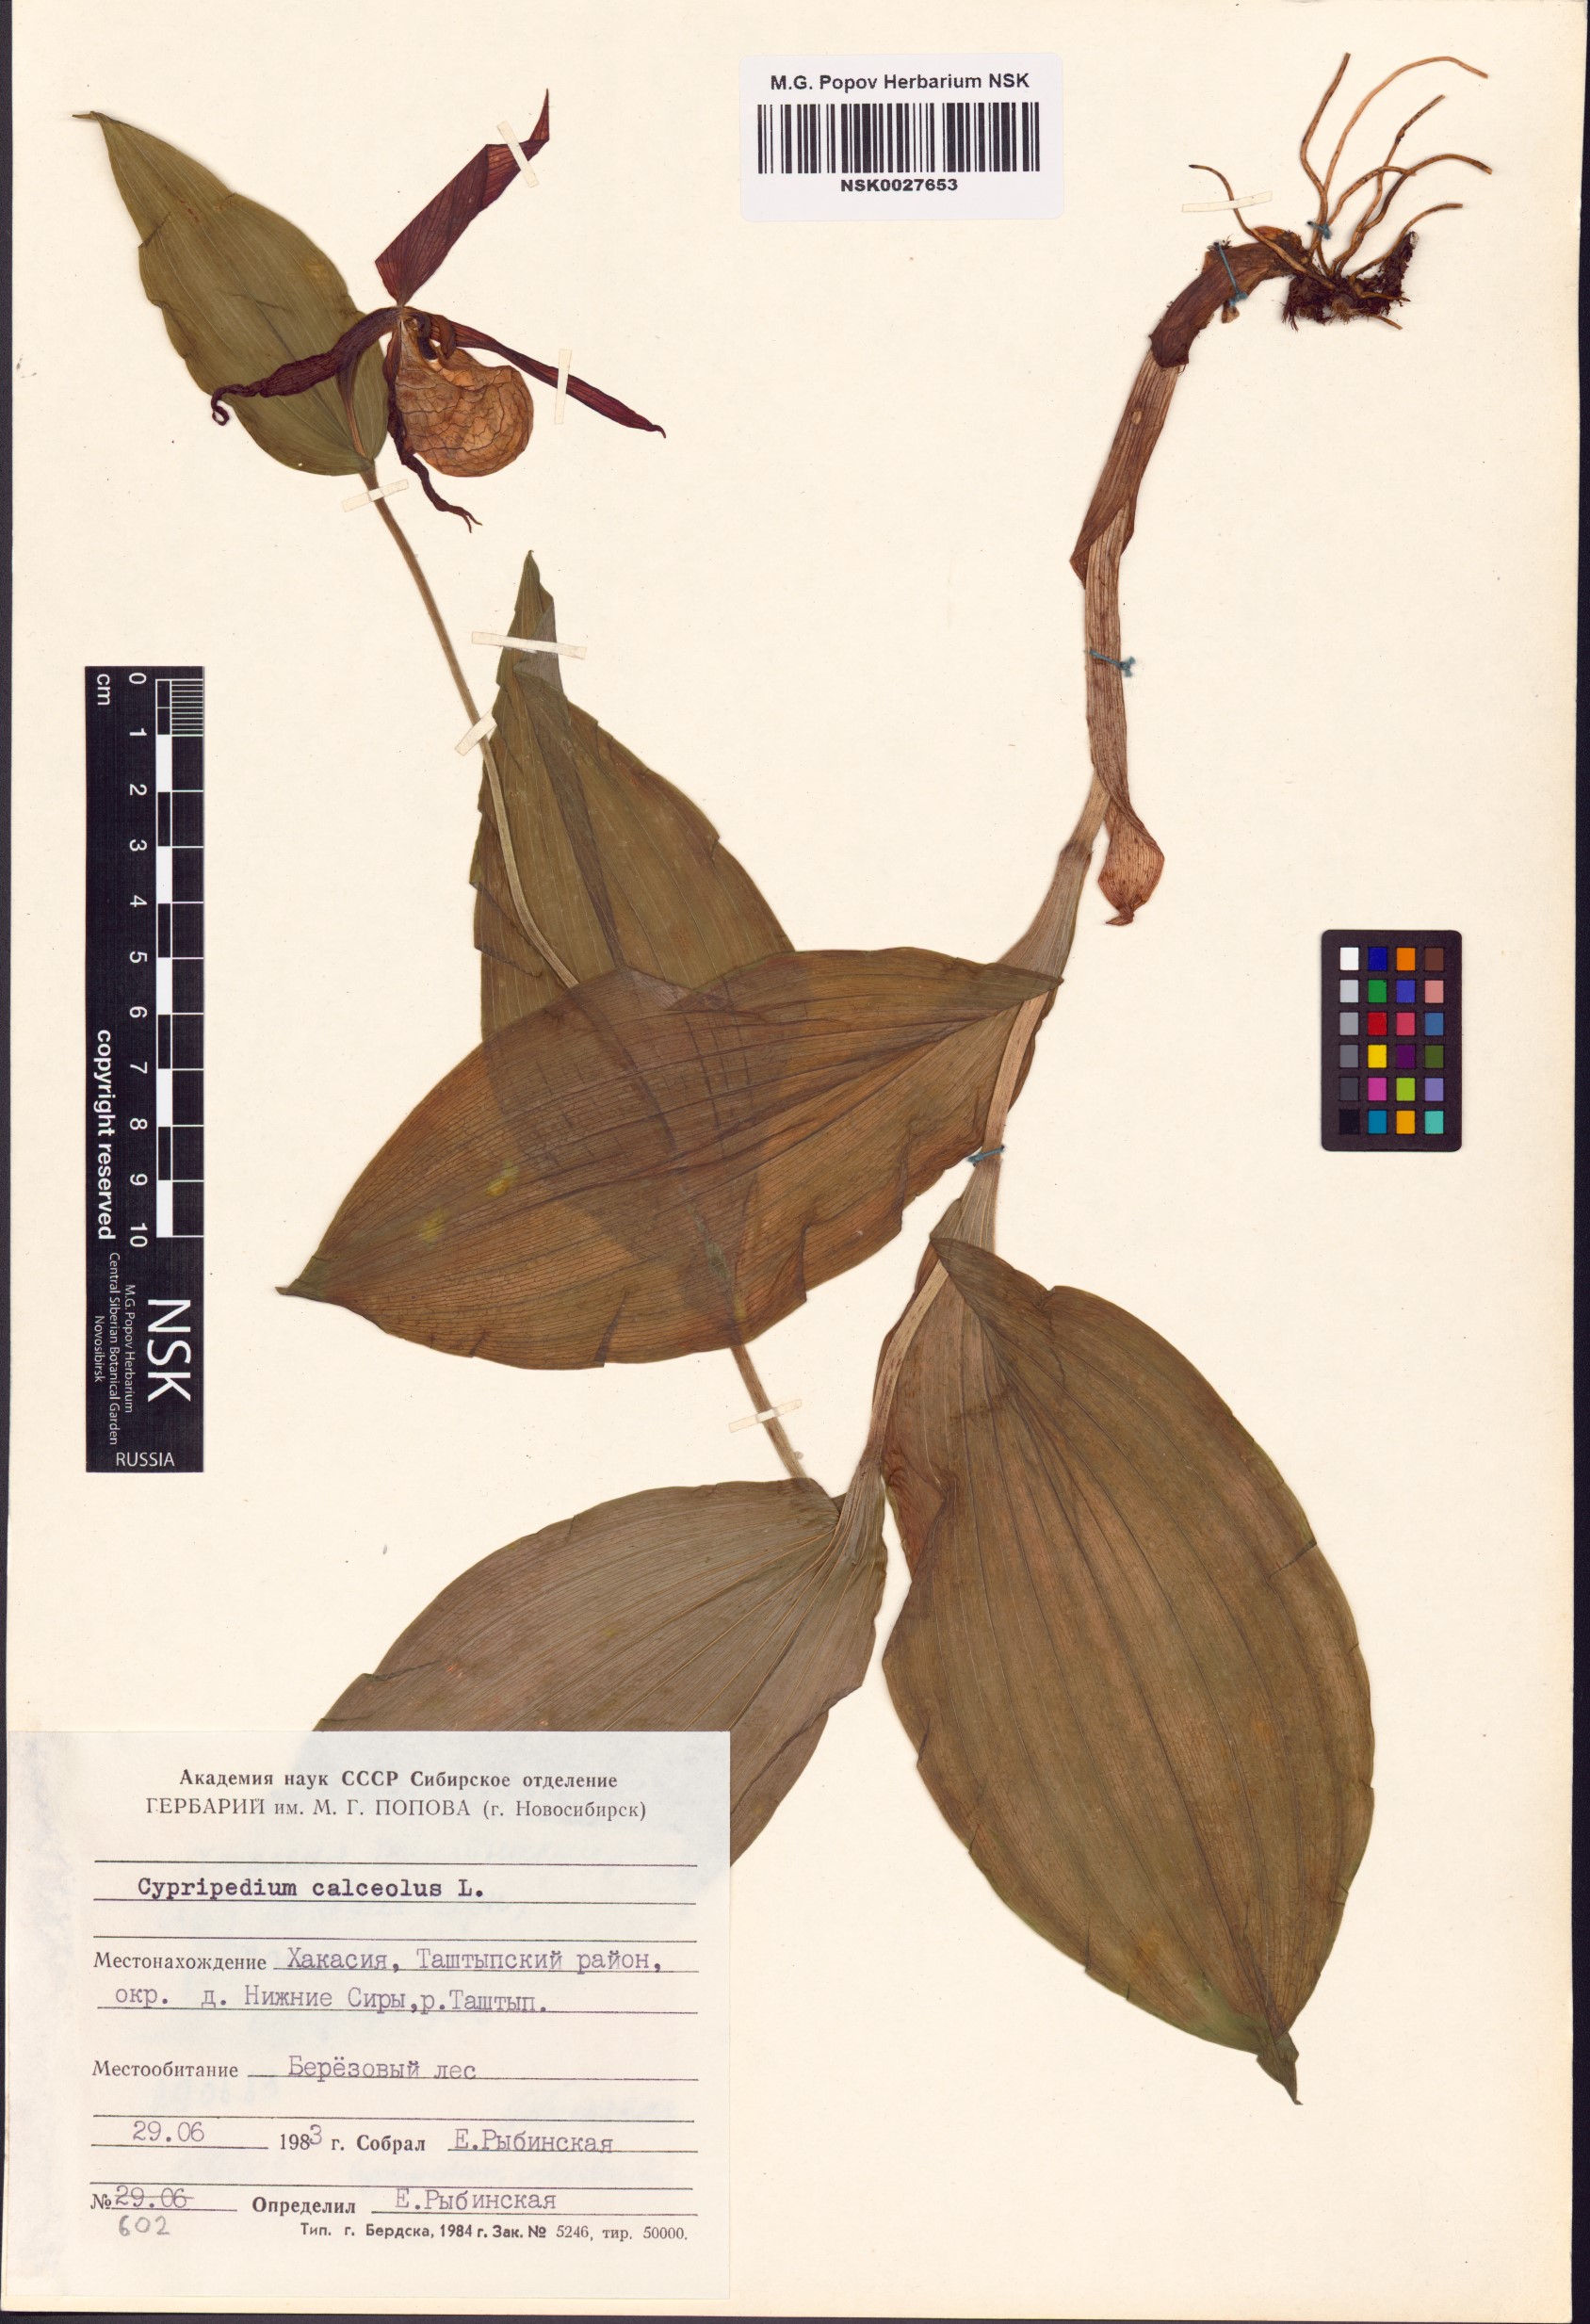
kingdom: Plantae
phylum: Tracheophyta
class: Liliopsida
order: Asparagales
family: Orchidaceae
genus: Cypripedium
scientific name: Cypripedium calceolus
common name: Lady's-slipper
